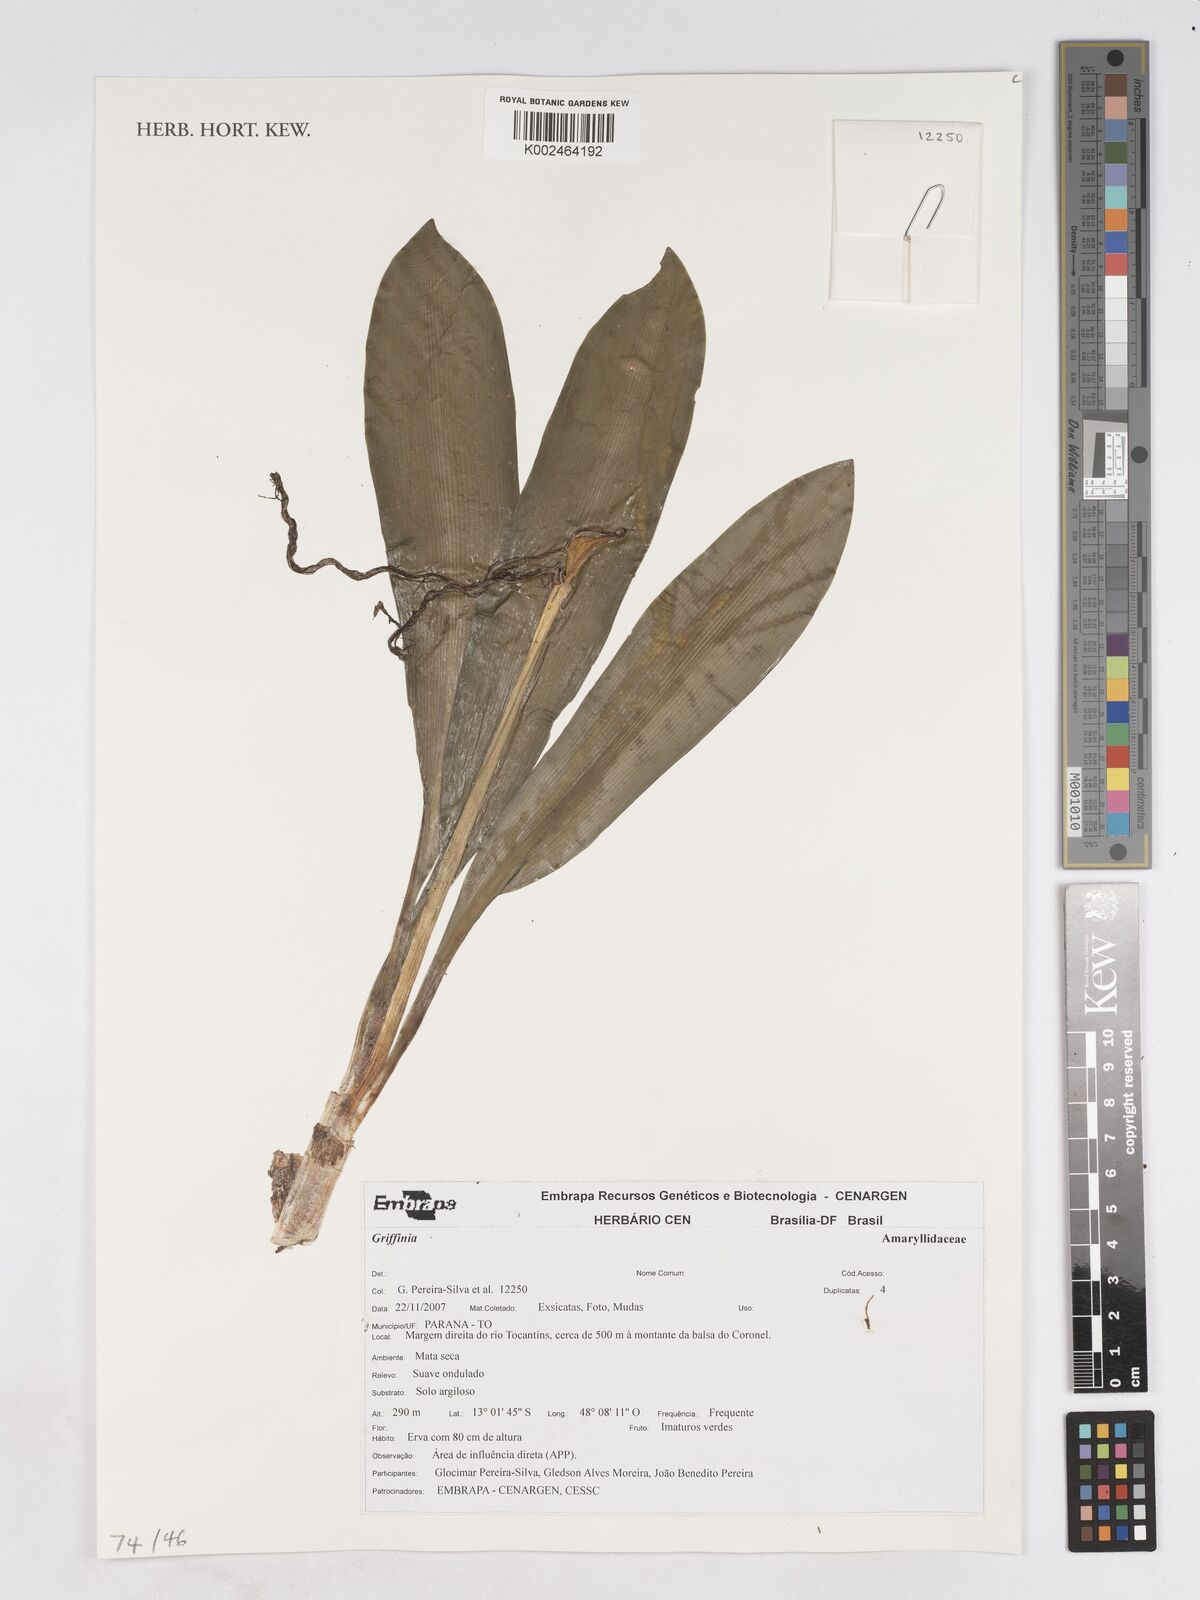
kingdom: Plantae
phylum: Tracheophyta
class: Liliopsida
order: Asparagales
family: Amaryllidaceae
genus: Griffinia
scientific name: Griffinia
